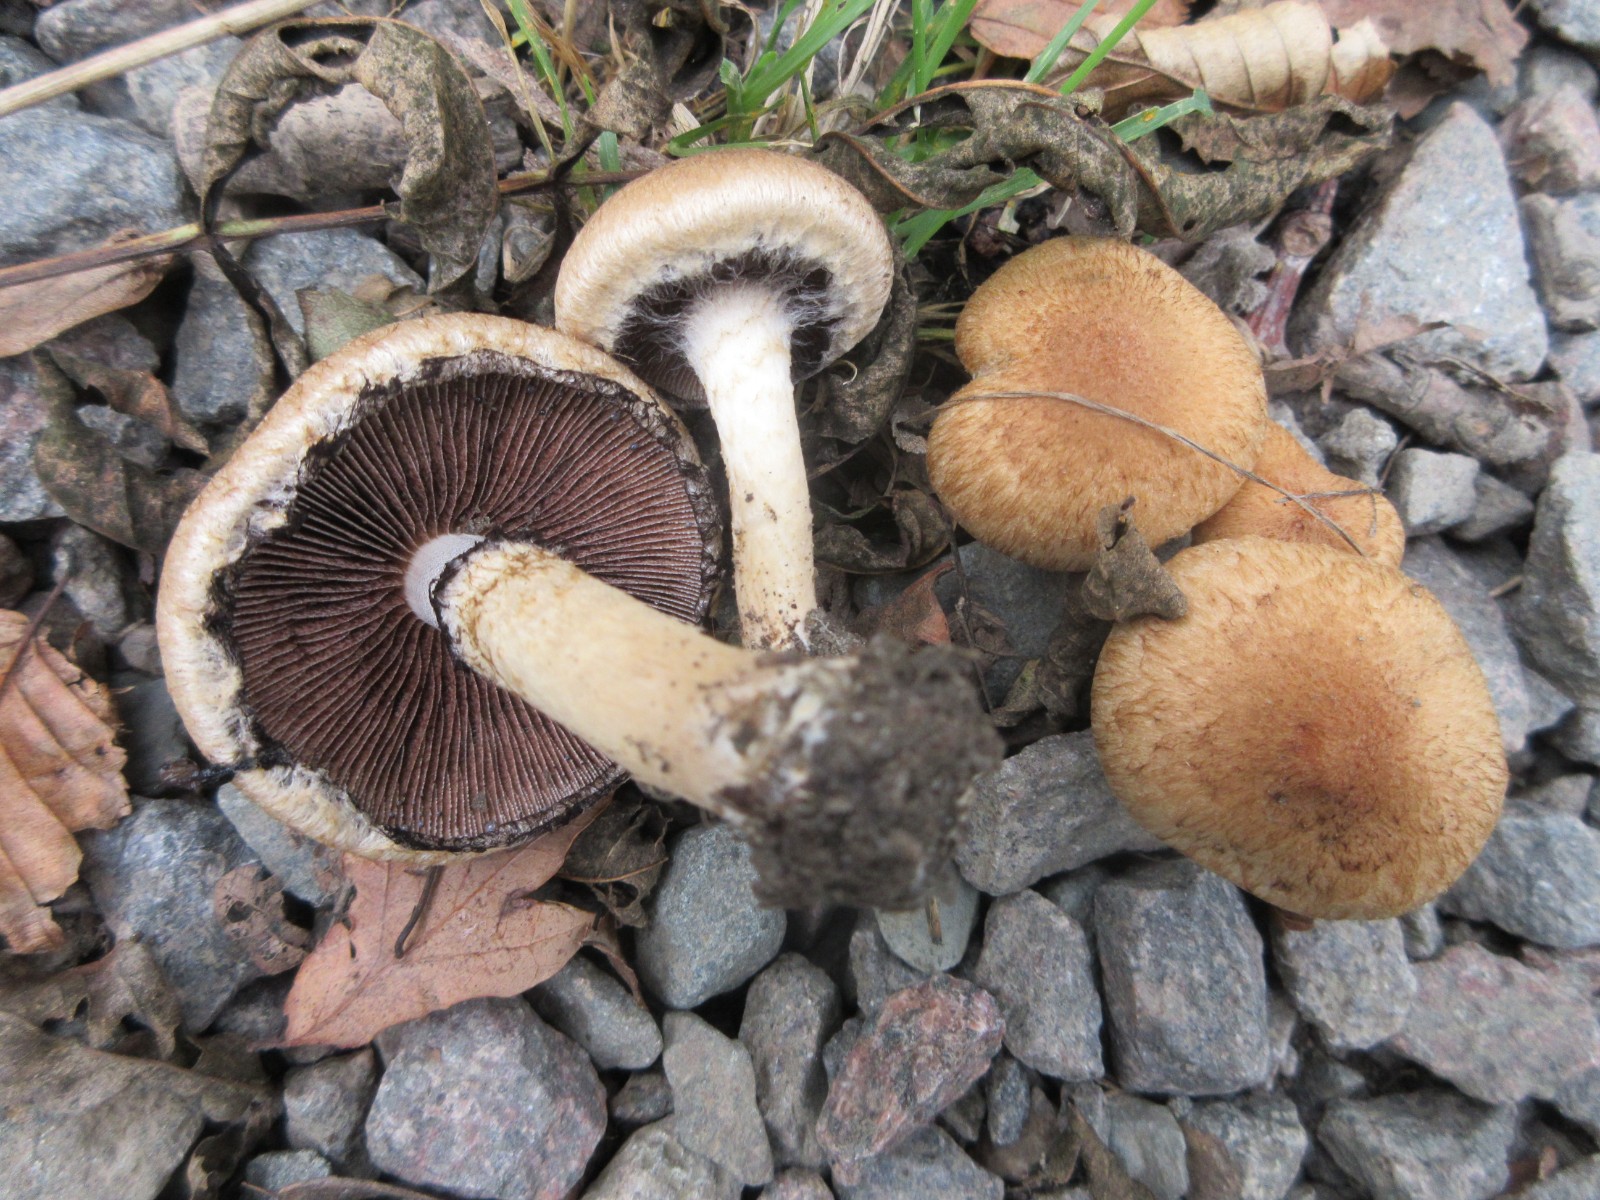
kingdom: Fungi
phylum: Basidiomycota
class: Agaricomycetes
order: Agaricales
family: Psathyrellaceae
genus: Lacrymaria
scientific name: Lacrymaria lacrymabunda
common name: grædende mørkhat
